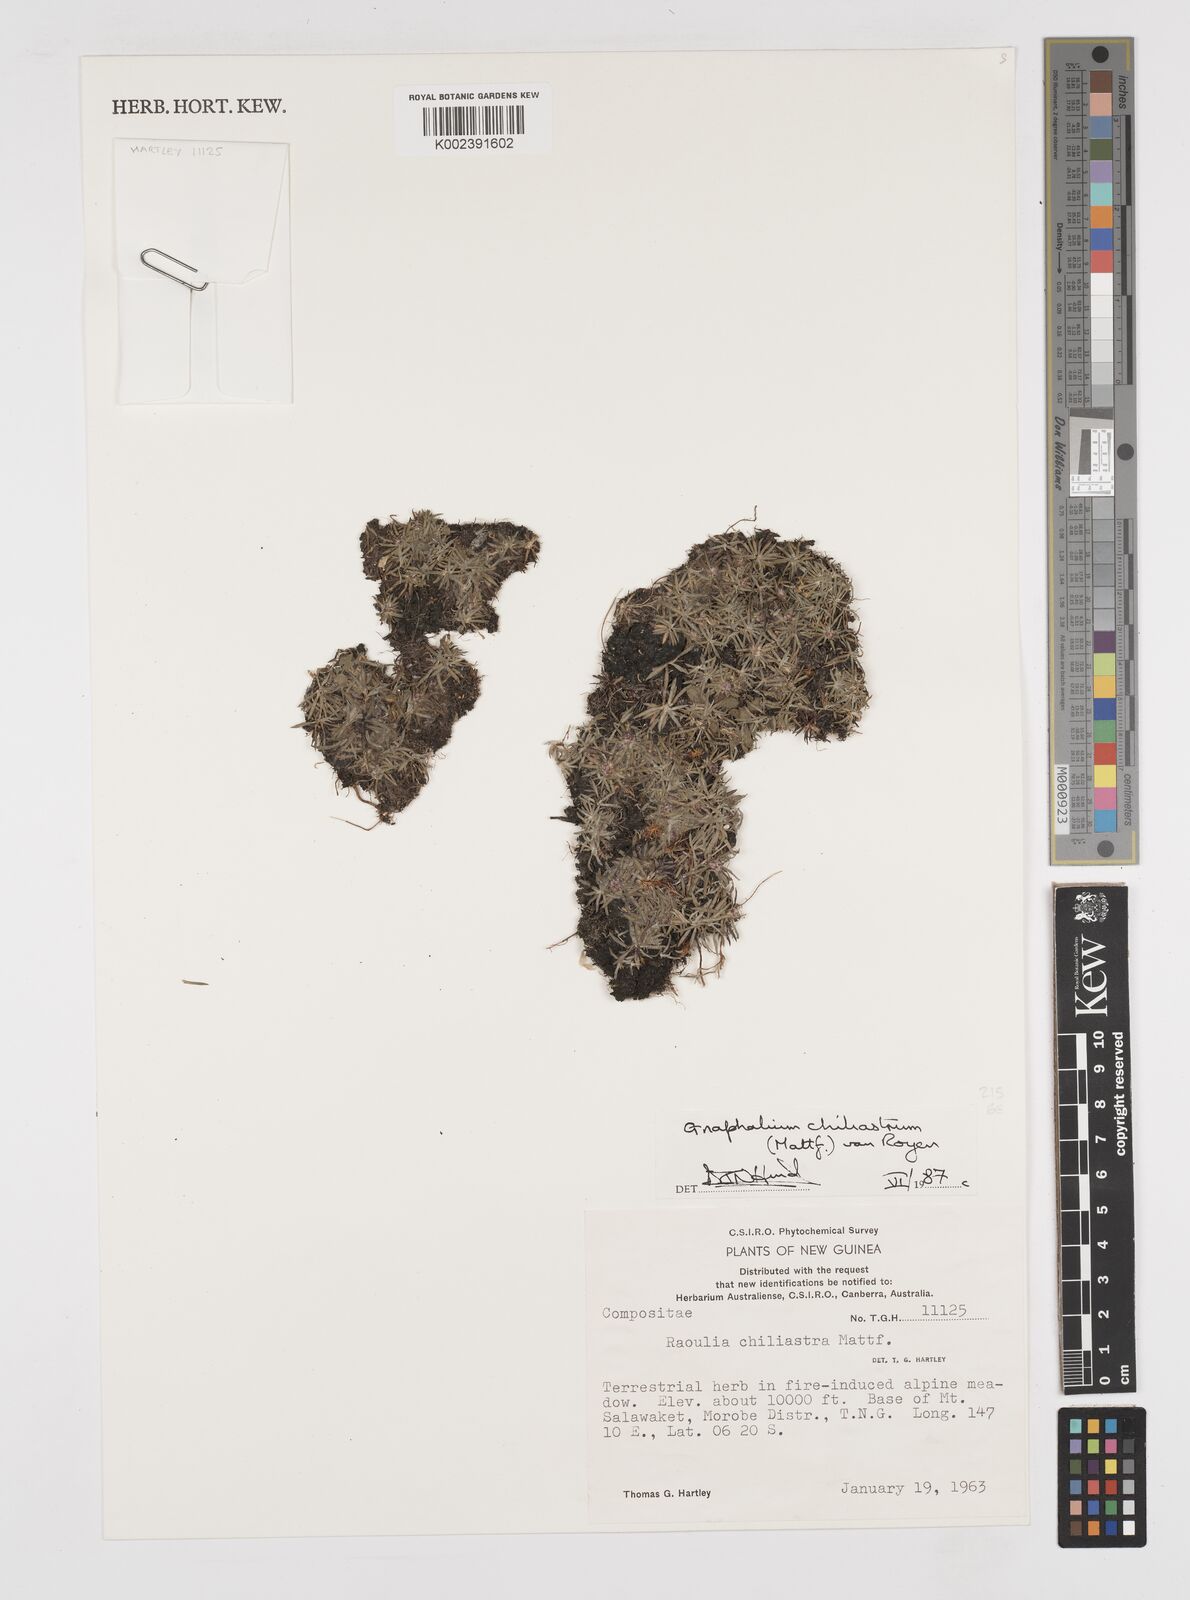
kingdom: Plantae
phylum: Tracheophyta
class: Magnoliopsida
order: Asterales
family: Asteraceae
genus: Gnaphalium
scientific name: Gnaphalium chiliastrum
